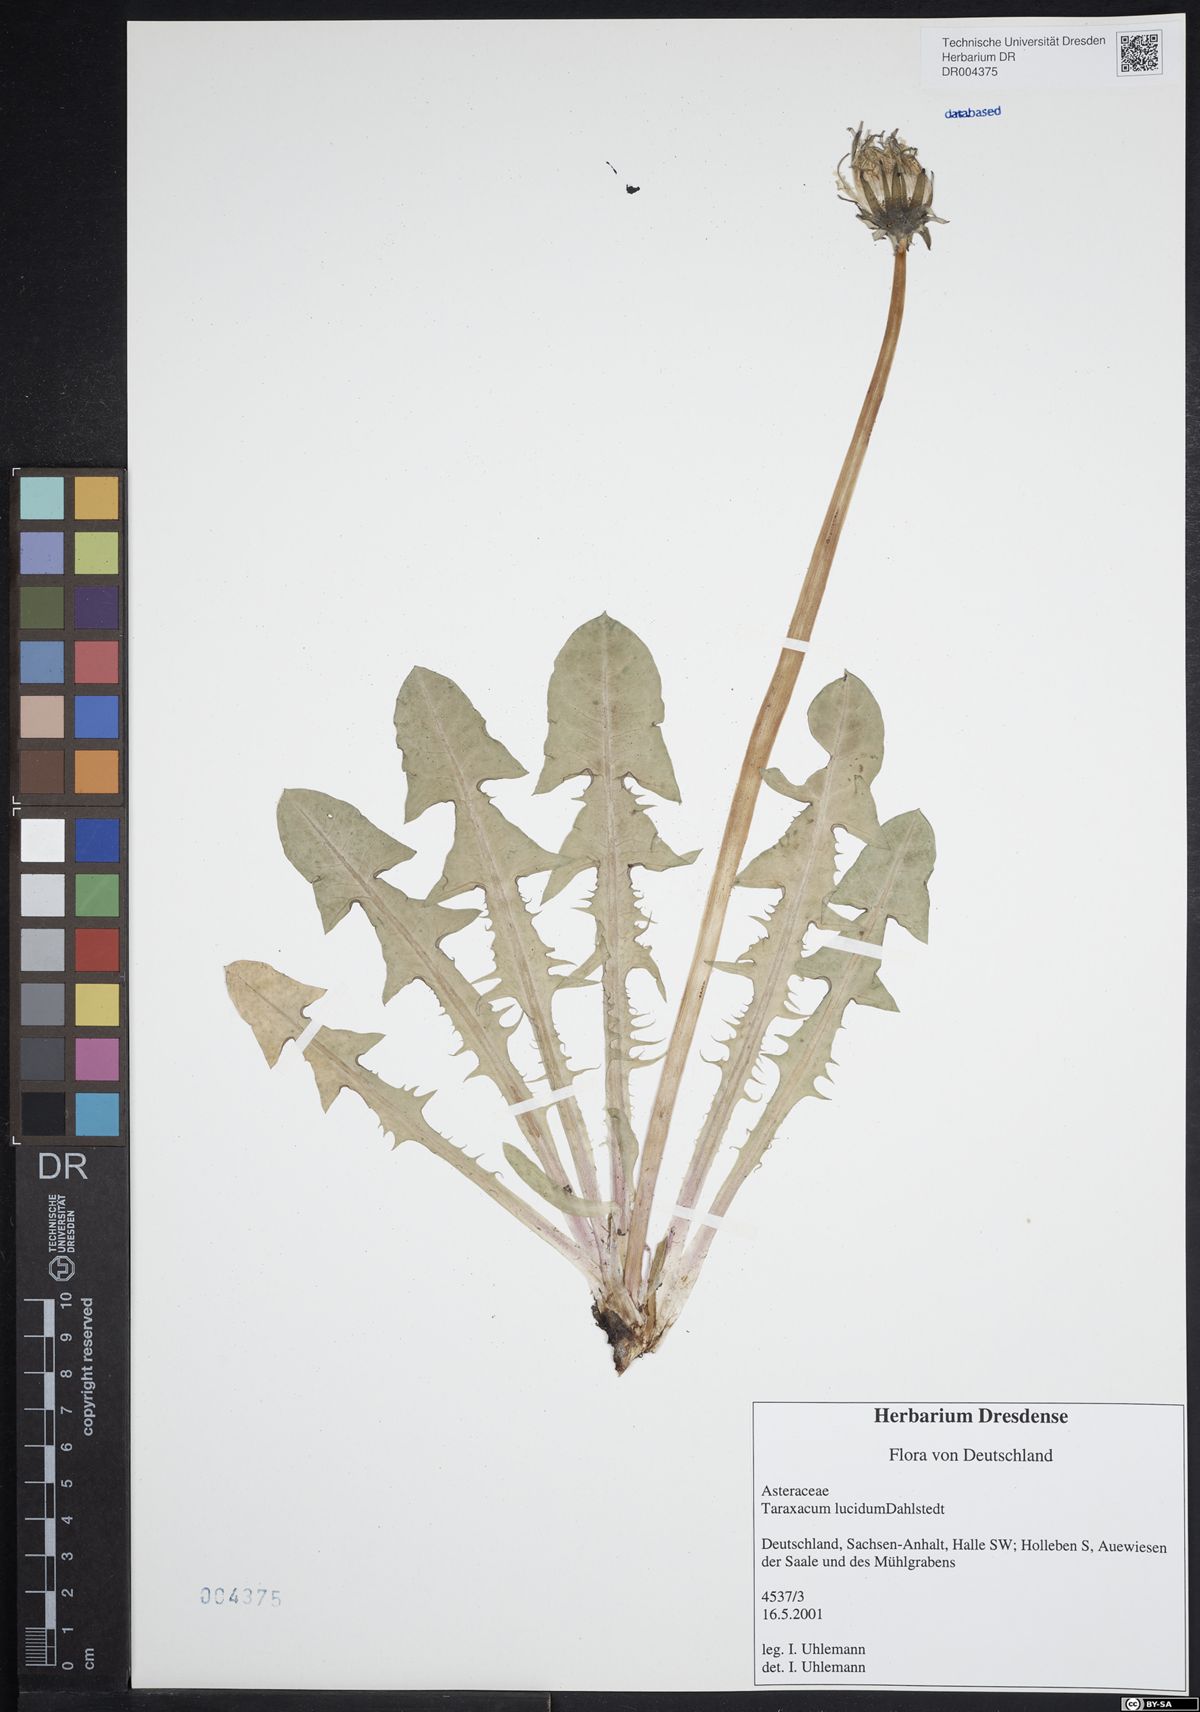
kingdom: Plantae
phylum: Tracheophyta
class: Magnoliopsida
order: Asterales
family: Asteraceae
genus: Taraxacum
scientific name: Taraxacum lucidum
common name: Large-bracted dandelion
